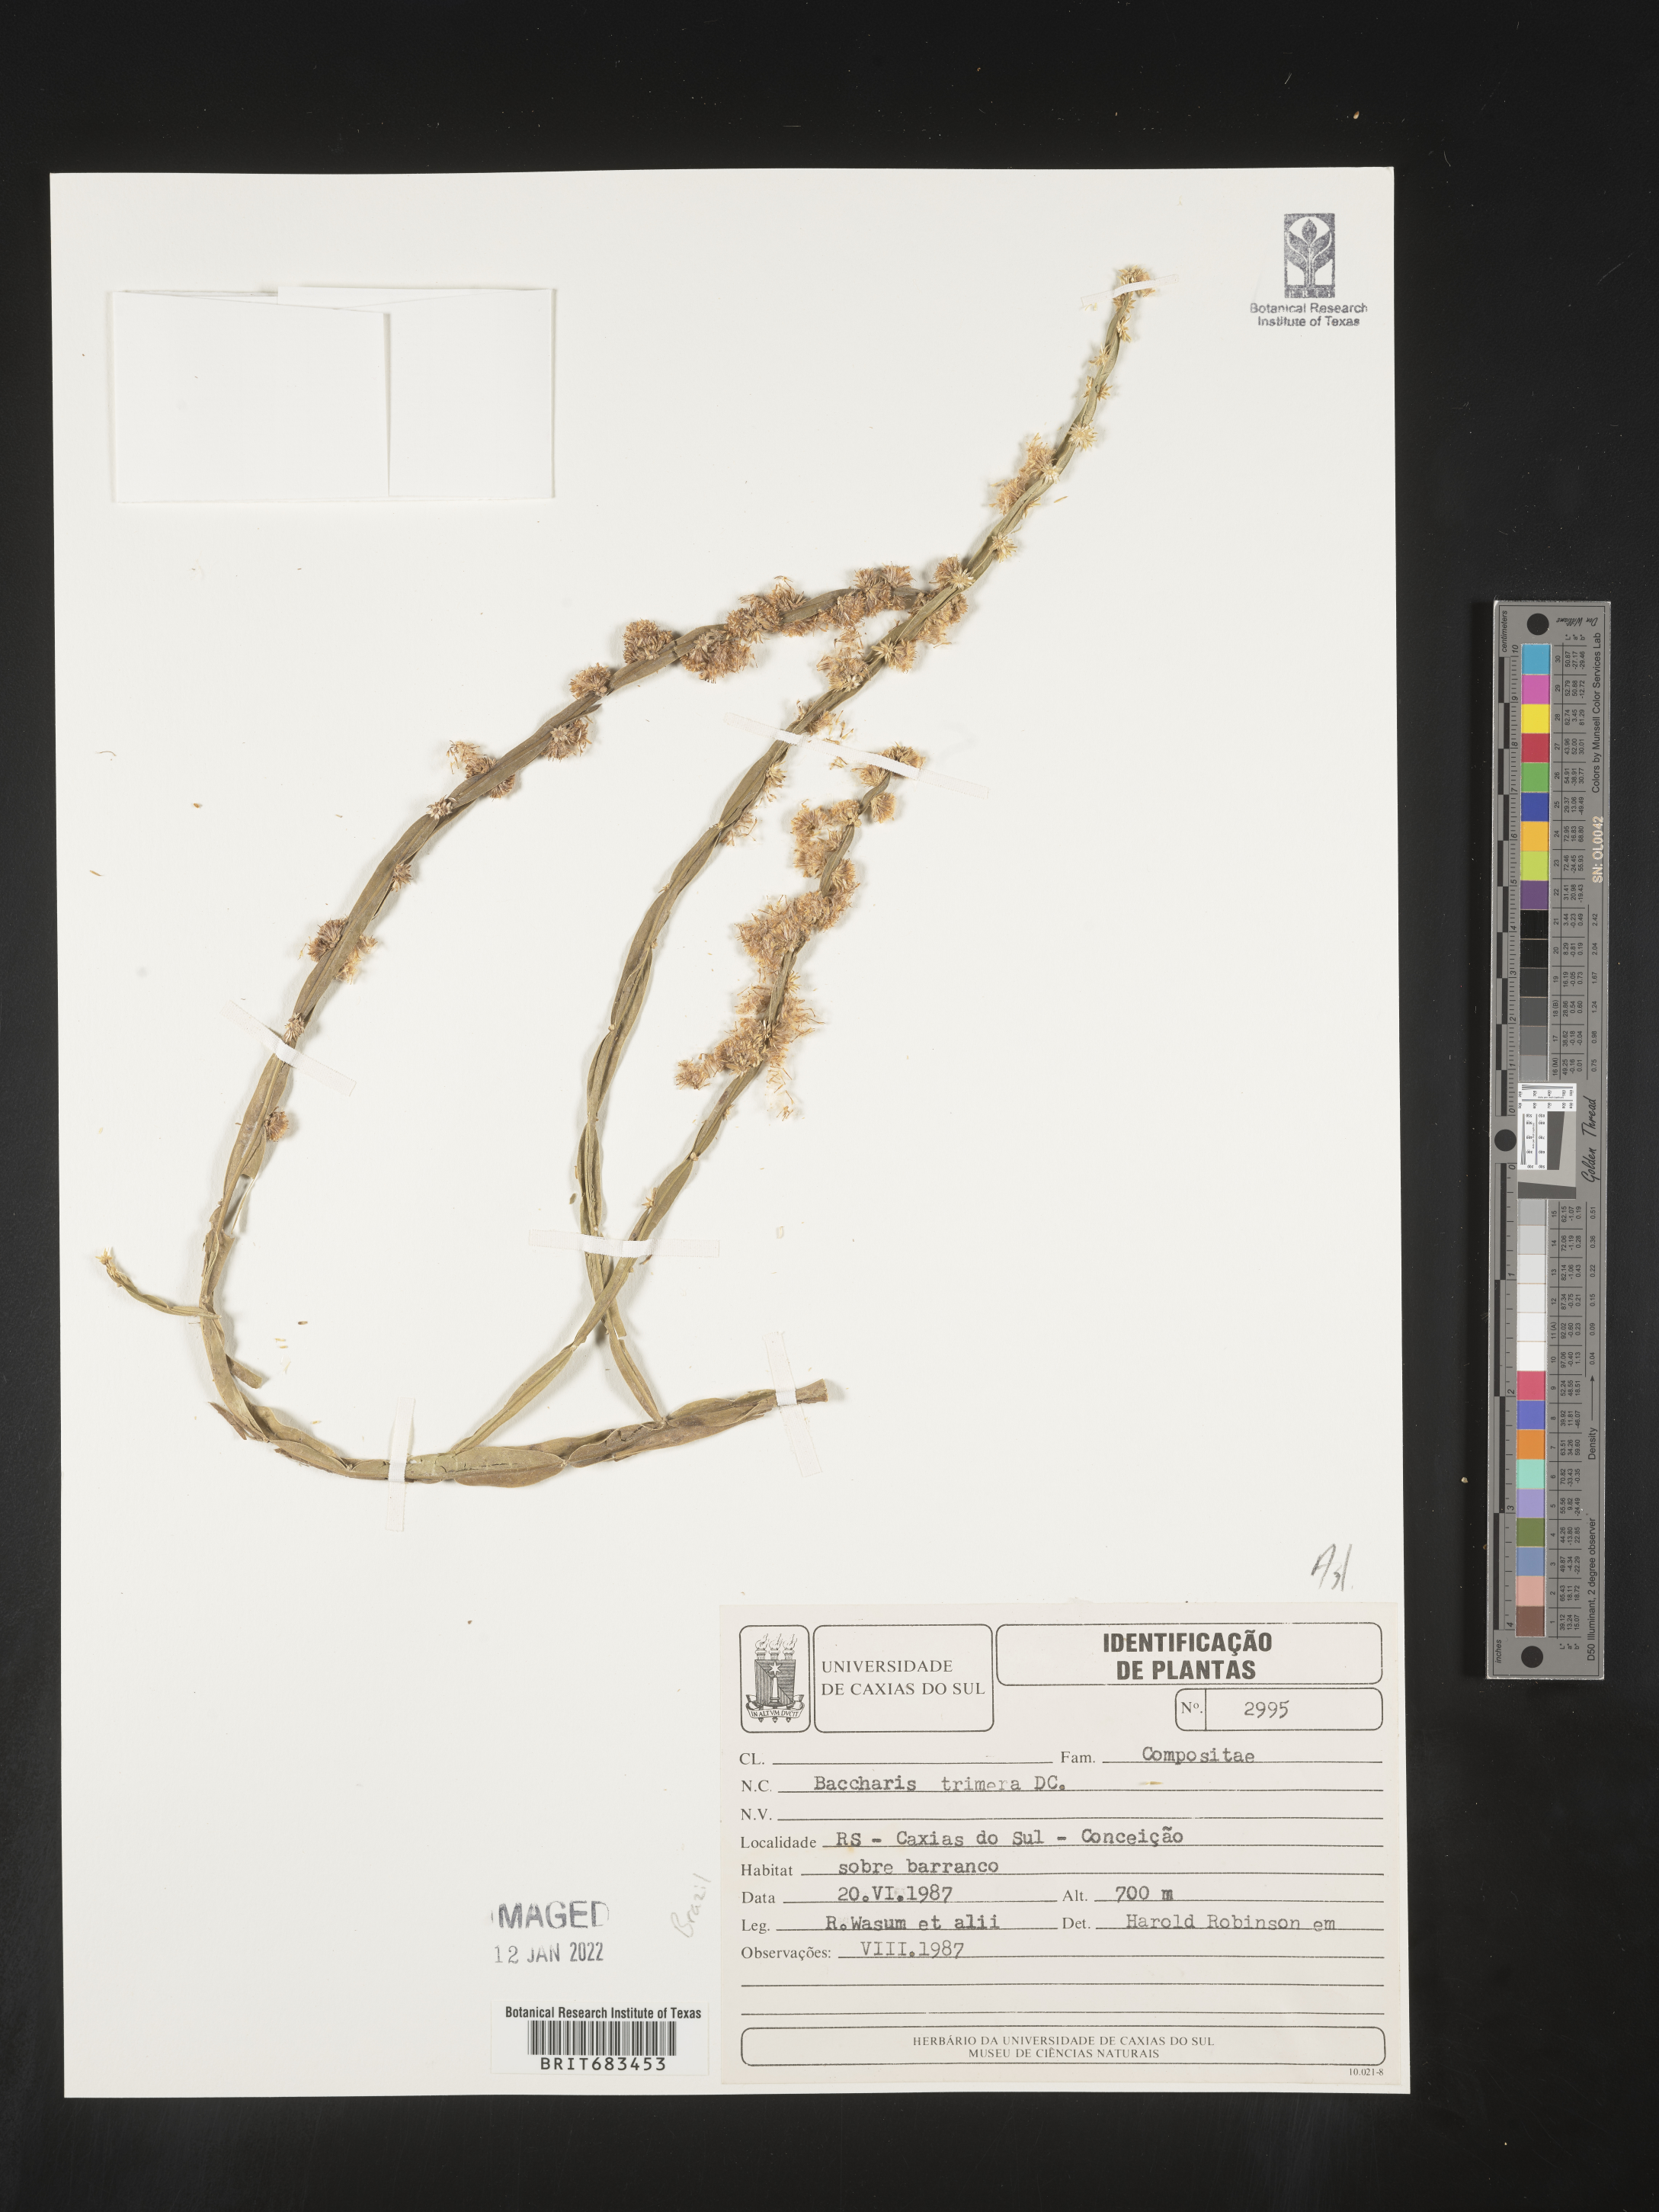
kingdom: Plantae
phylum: Tracheophyta
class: Magnoliopsida
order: Asterales
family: Asteraceae
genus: Baccharis
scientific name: Baccharis
